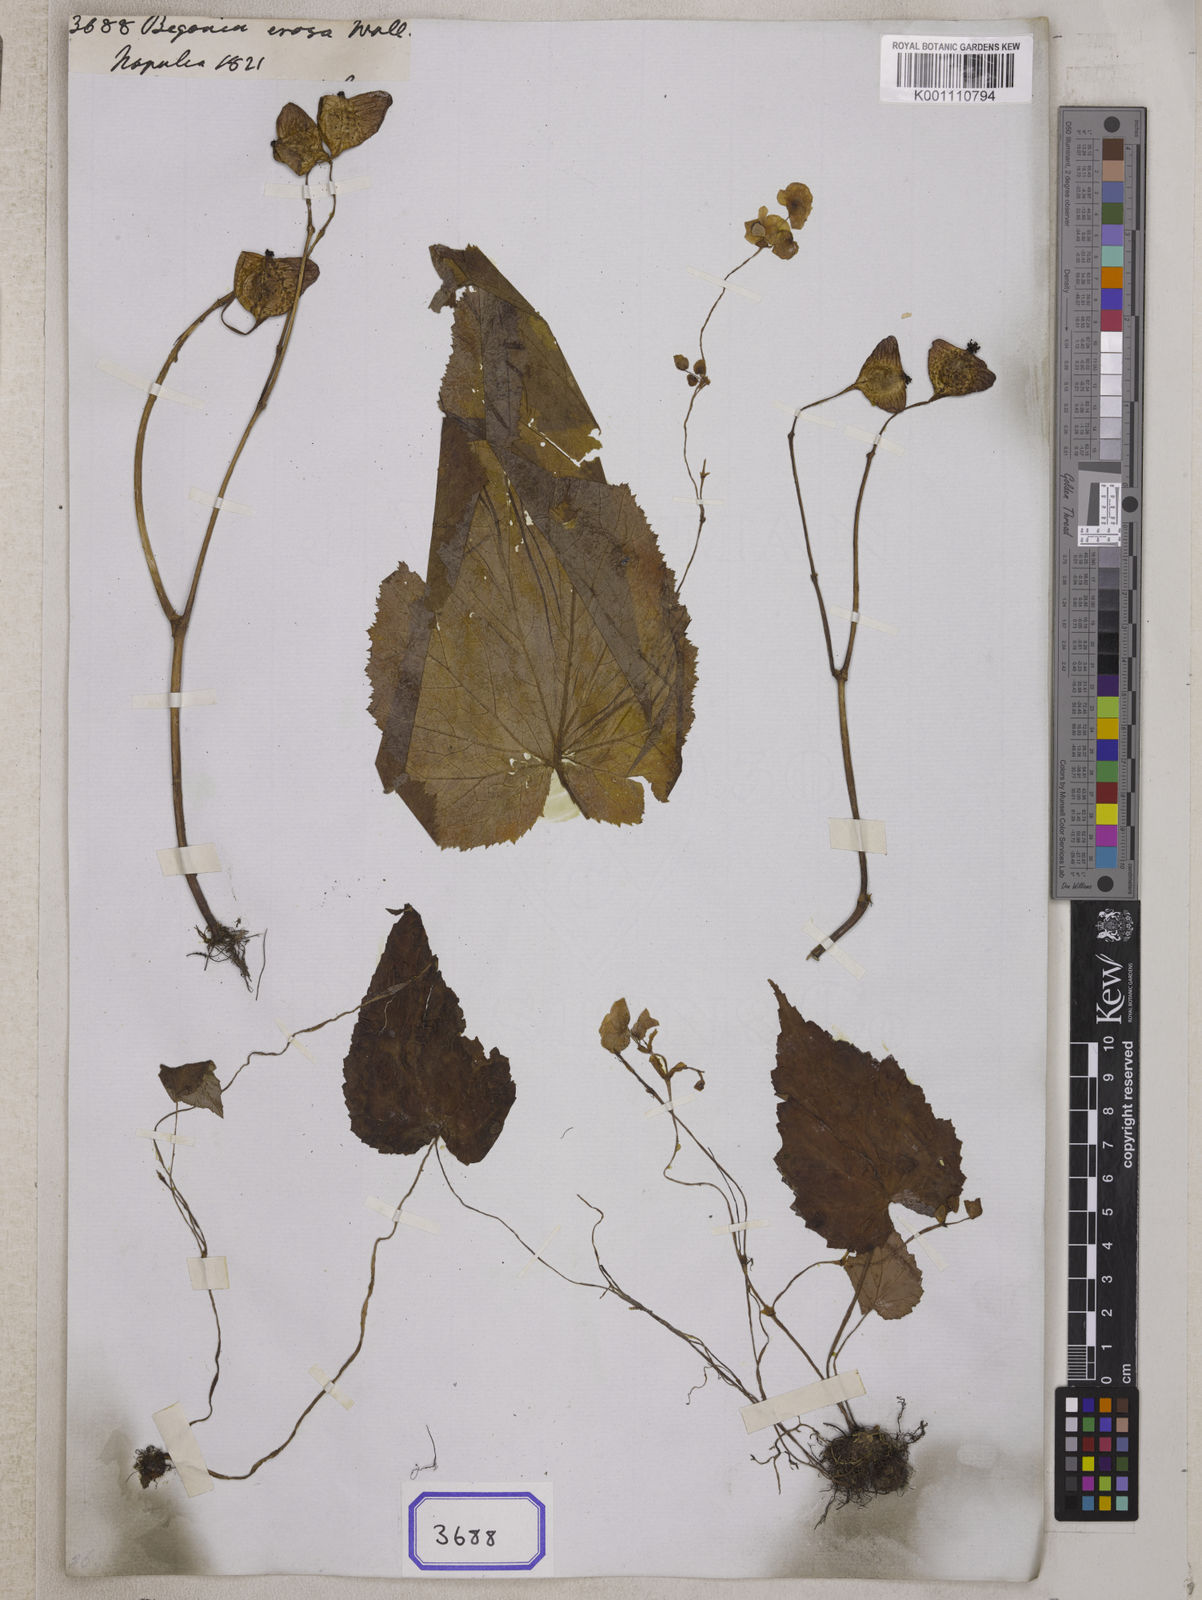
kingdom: Plantae
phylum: Tracheophyta
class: Magnoliopsida
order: Cucurbitales
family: Begoniaceae
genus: Begonia
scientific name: Begonia
